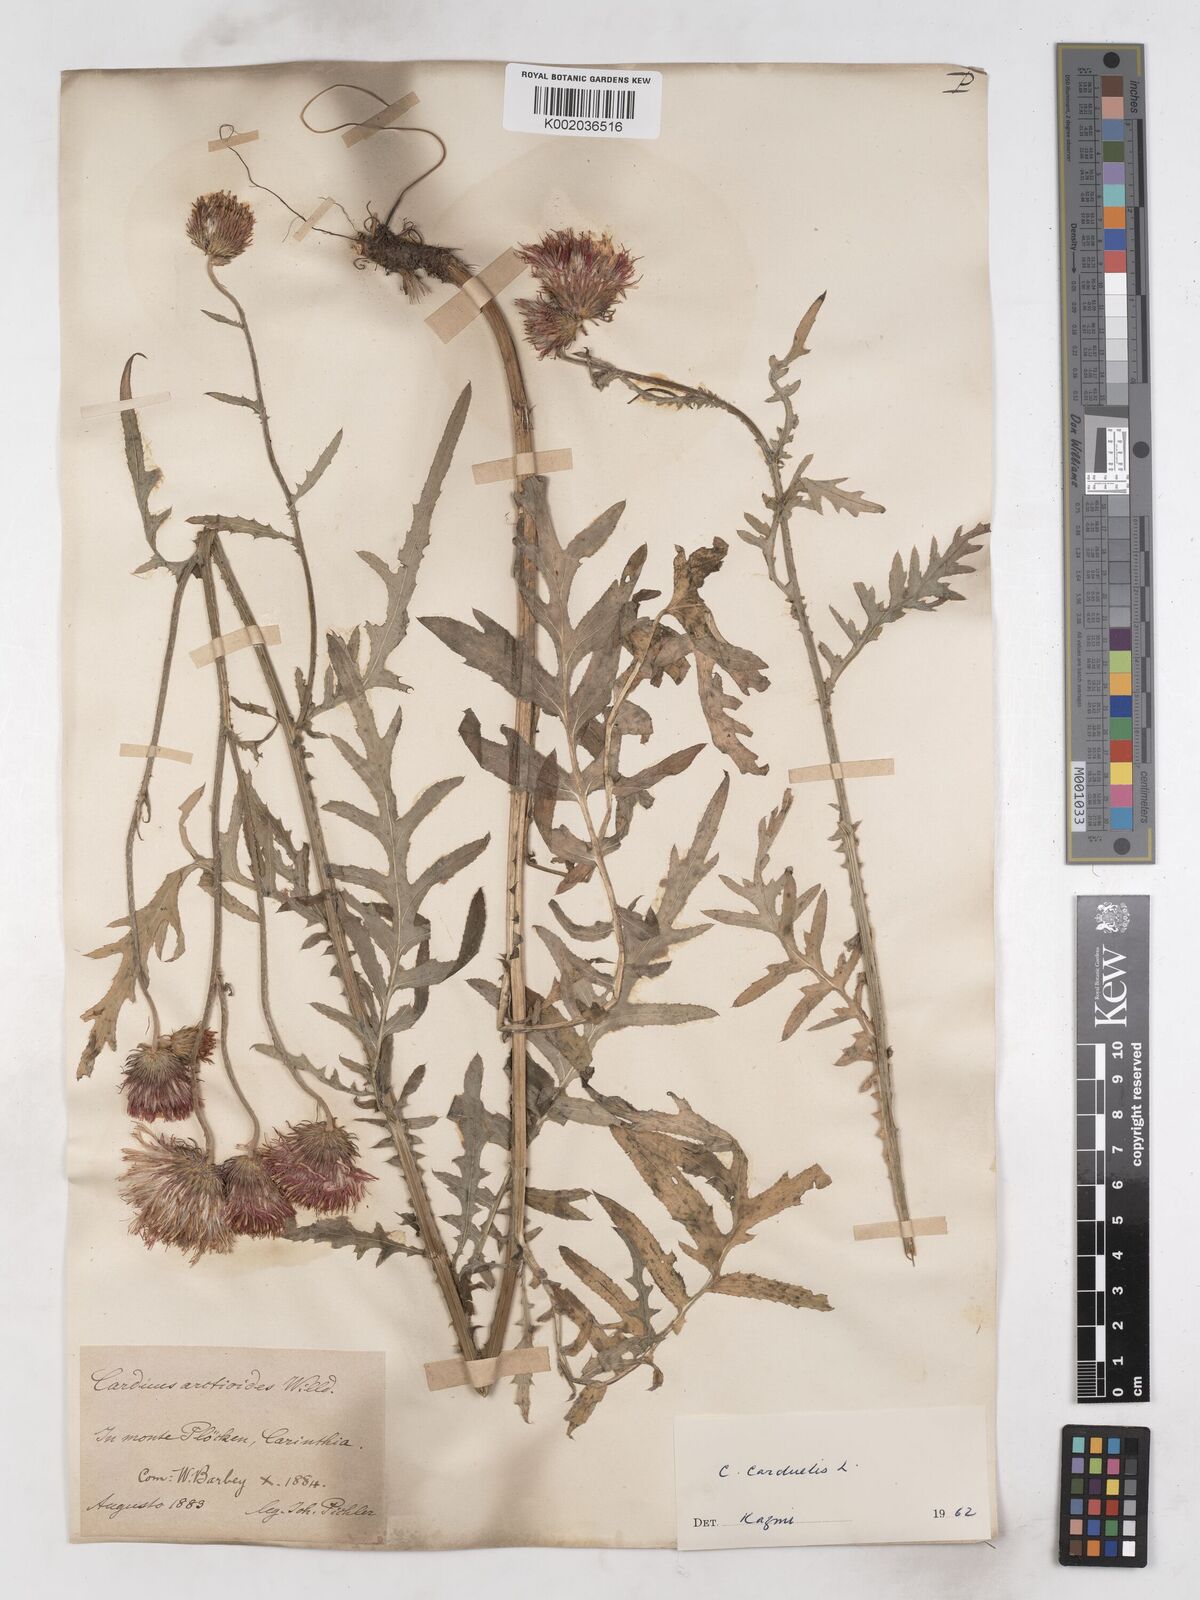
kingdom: Plantae
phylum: Tracheophyta
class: Magnoliopsida
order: Asterales
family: Asteraceae
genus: Carduus
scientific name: Carduus carduelis
